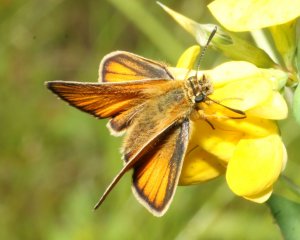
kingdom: Animalia
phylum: Arthropoda
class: Insecta
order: Lepidoptera
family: Hesperiidae
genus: Thymelicus
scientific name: Thymelicus lineola
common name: European Skipper
